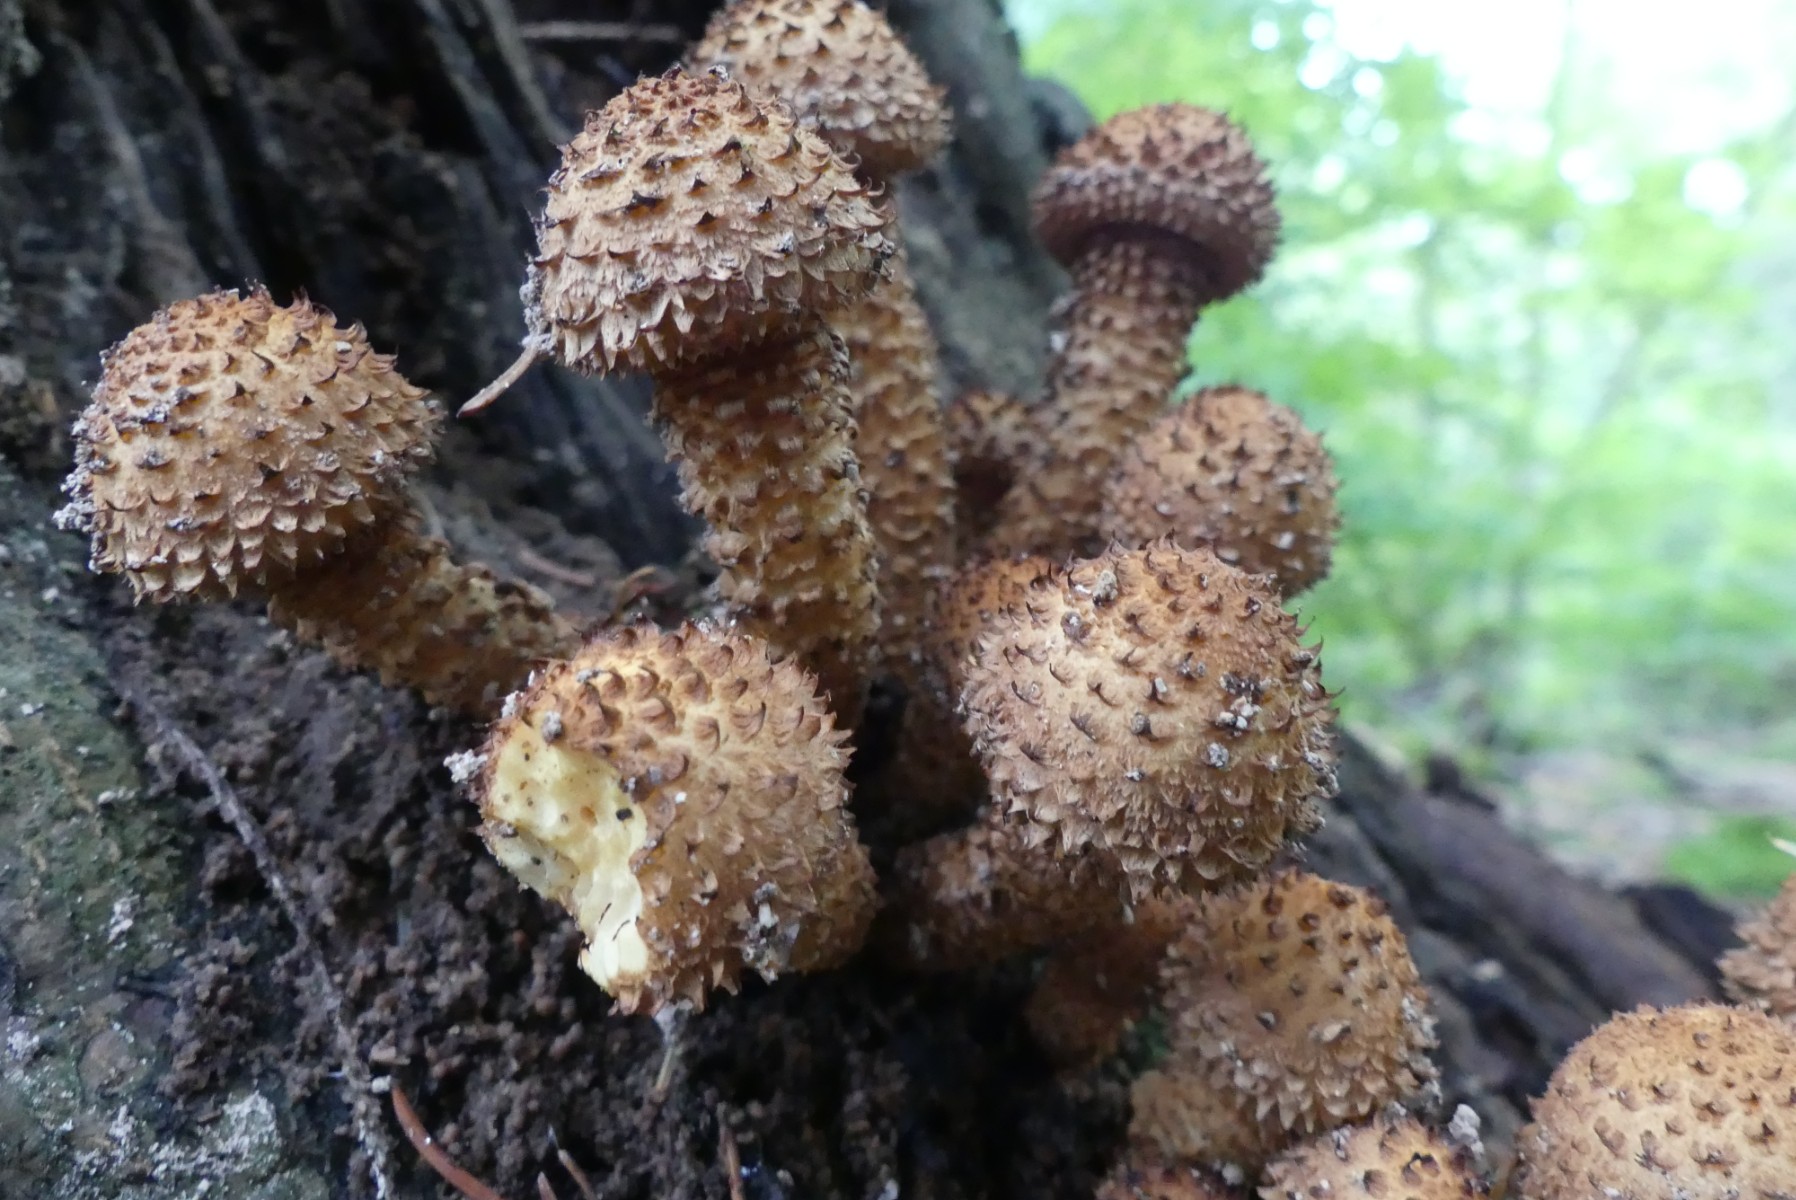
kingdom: Fungi
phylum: Basidiomycota
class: Agaricomycetes
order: Agaricales
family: Strophariaceae
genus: Pholiota
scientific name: Pholiota squarrosa
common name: krumskællet skælhat
